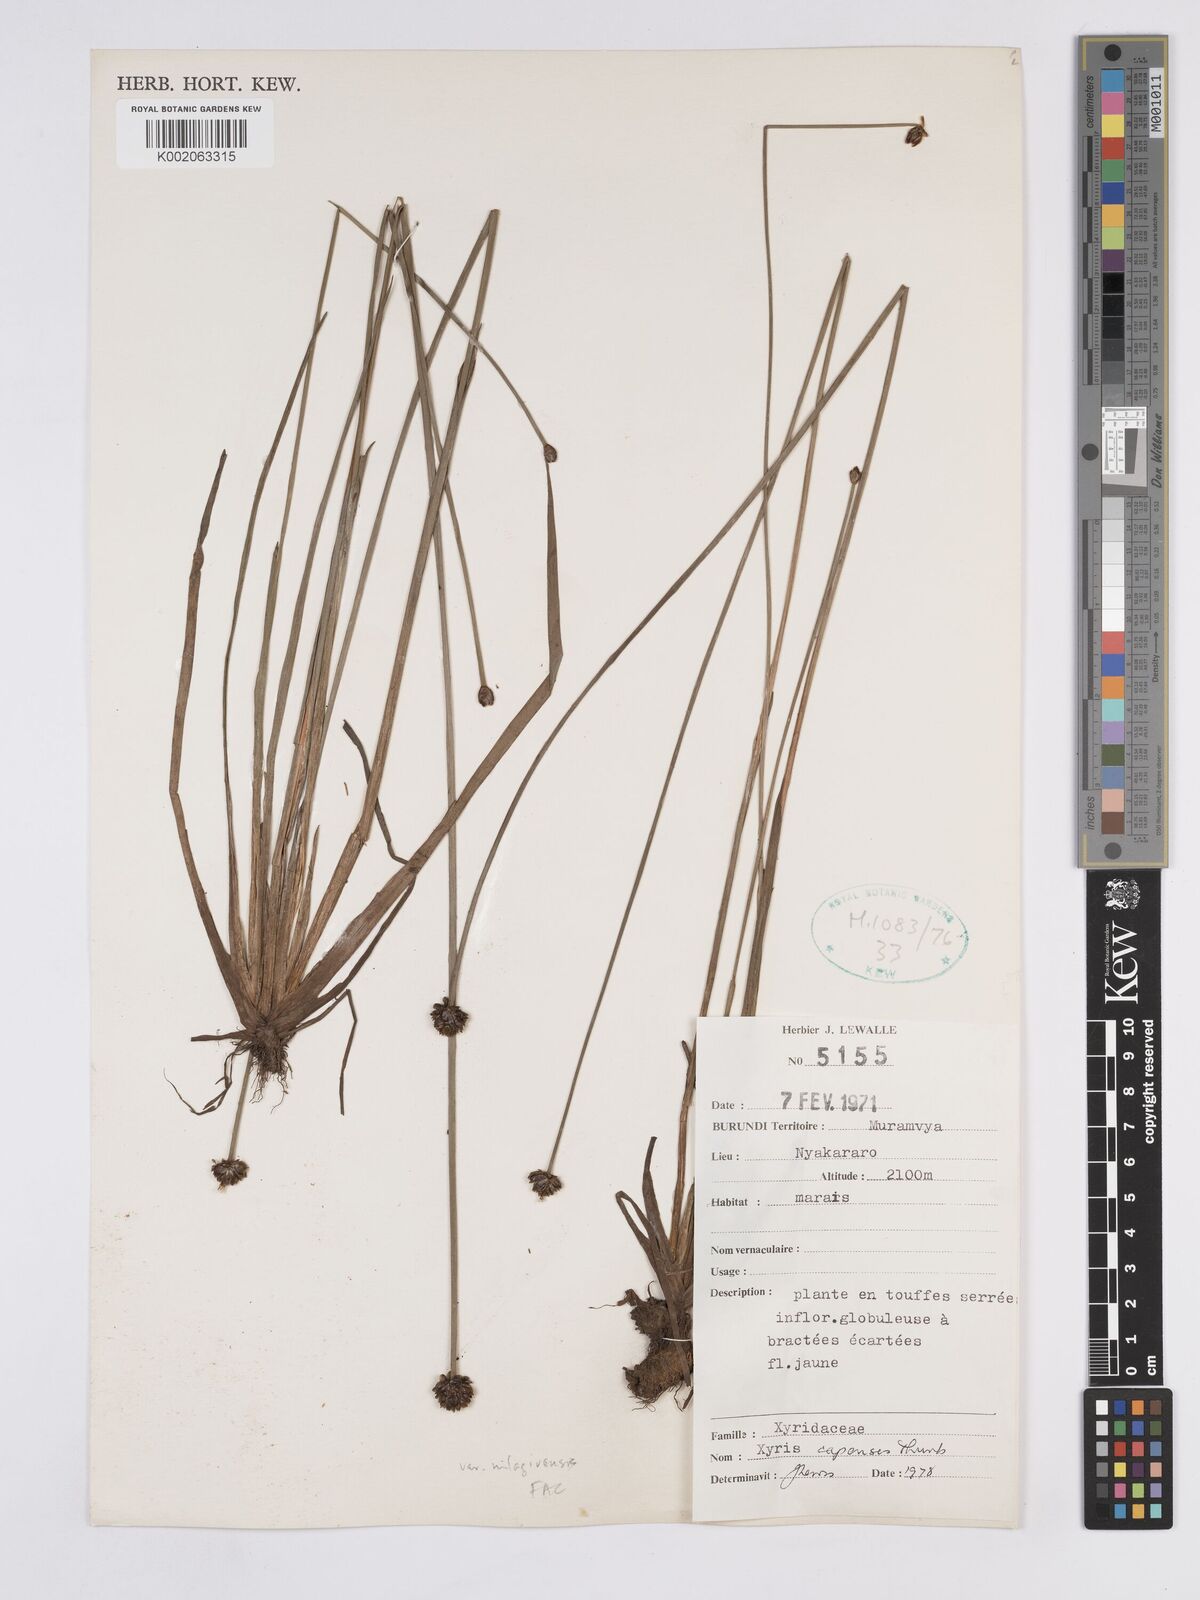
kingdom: Plantae
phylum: Tracheophyta
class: Liliopsida
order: Poales
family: Xyridaceae
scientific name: Xyridaceae
